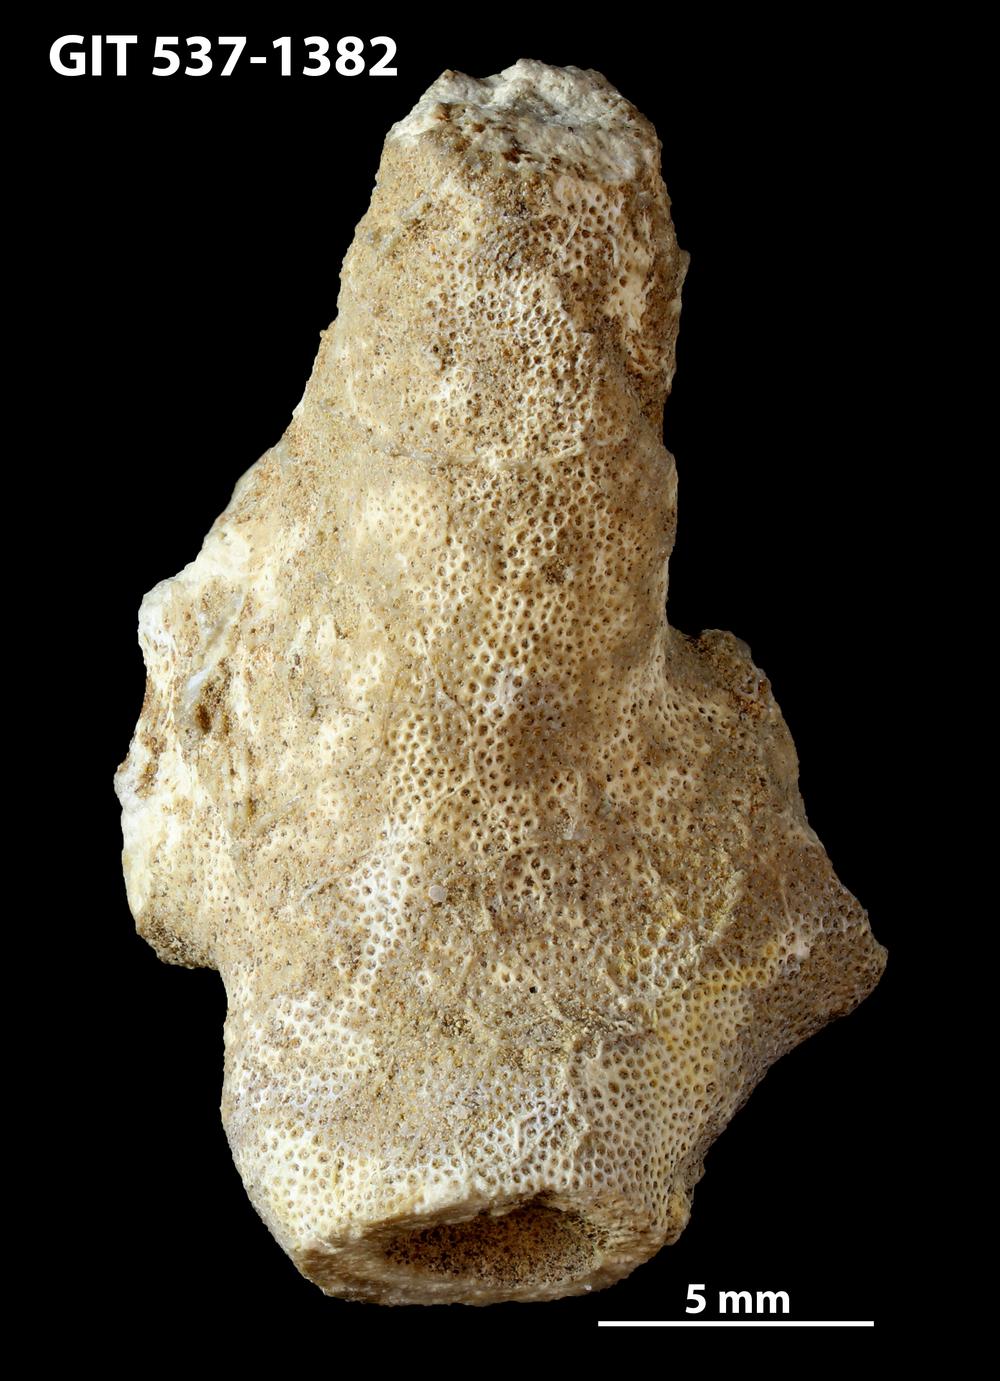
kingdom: Animalia
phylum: Bryozoa
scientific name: Bryozoa
